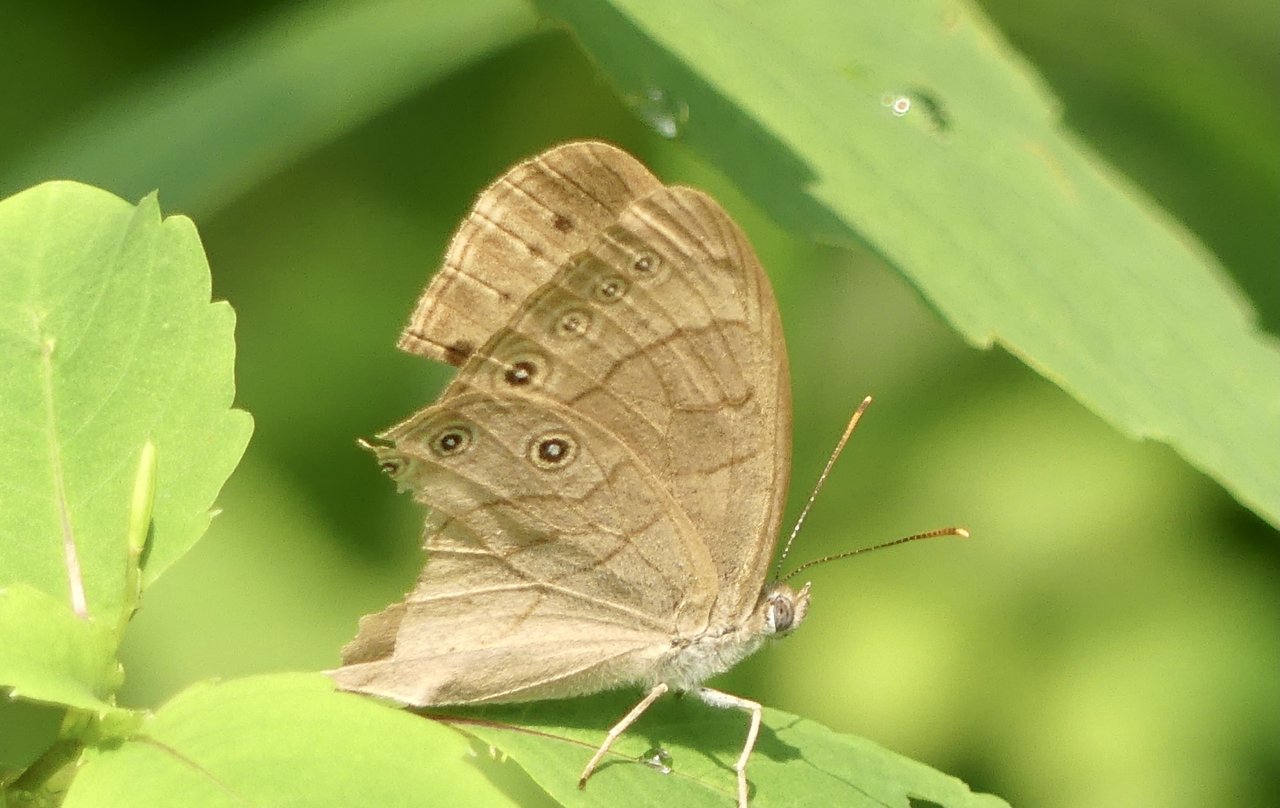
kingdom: Animalia
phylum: Arthropoda
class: Insecta
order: Lepidoptera
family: Nymphalidae
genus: Lethe
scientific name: Lethe eurydice
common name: Appalachian Eyed Brown
